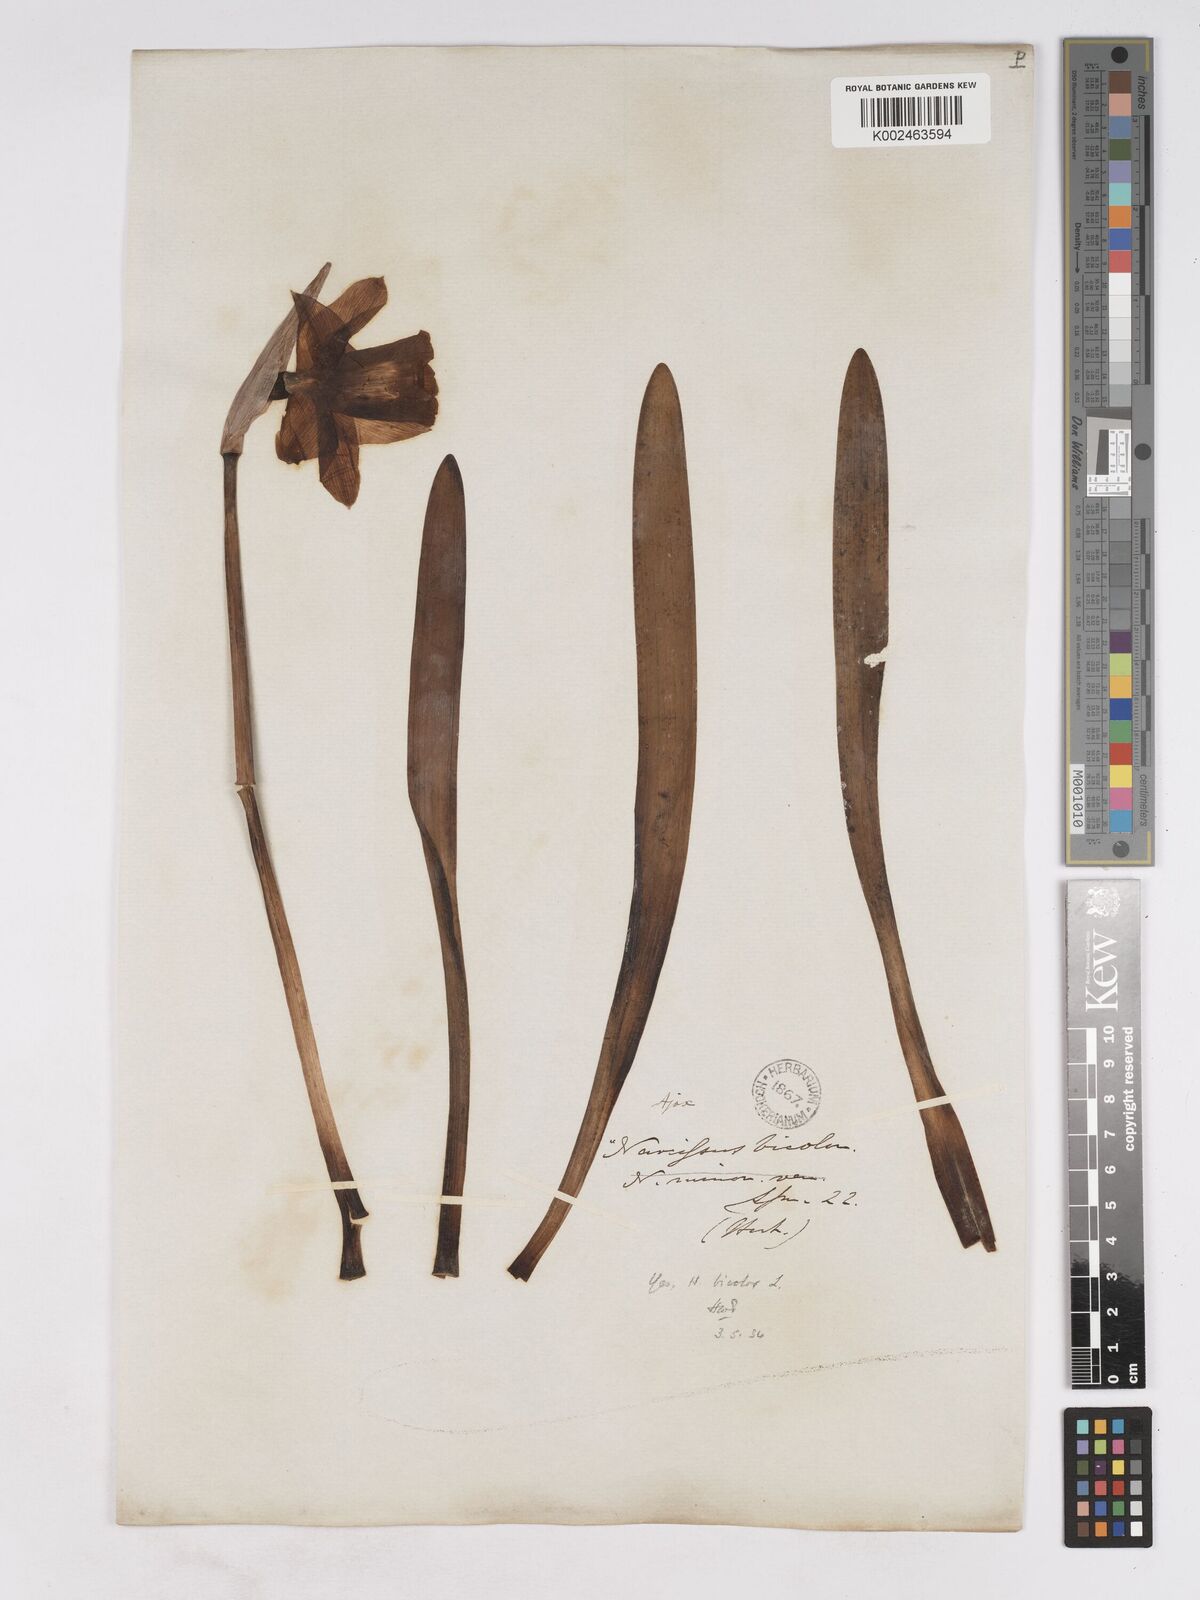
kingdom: Plantae
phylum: Tracheophyta
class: Liliopsida
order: Asparagales
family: Amaryllidaceae
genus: Narcissus
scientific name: Narcissus bicolor
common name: Two-color daffodil
